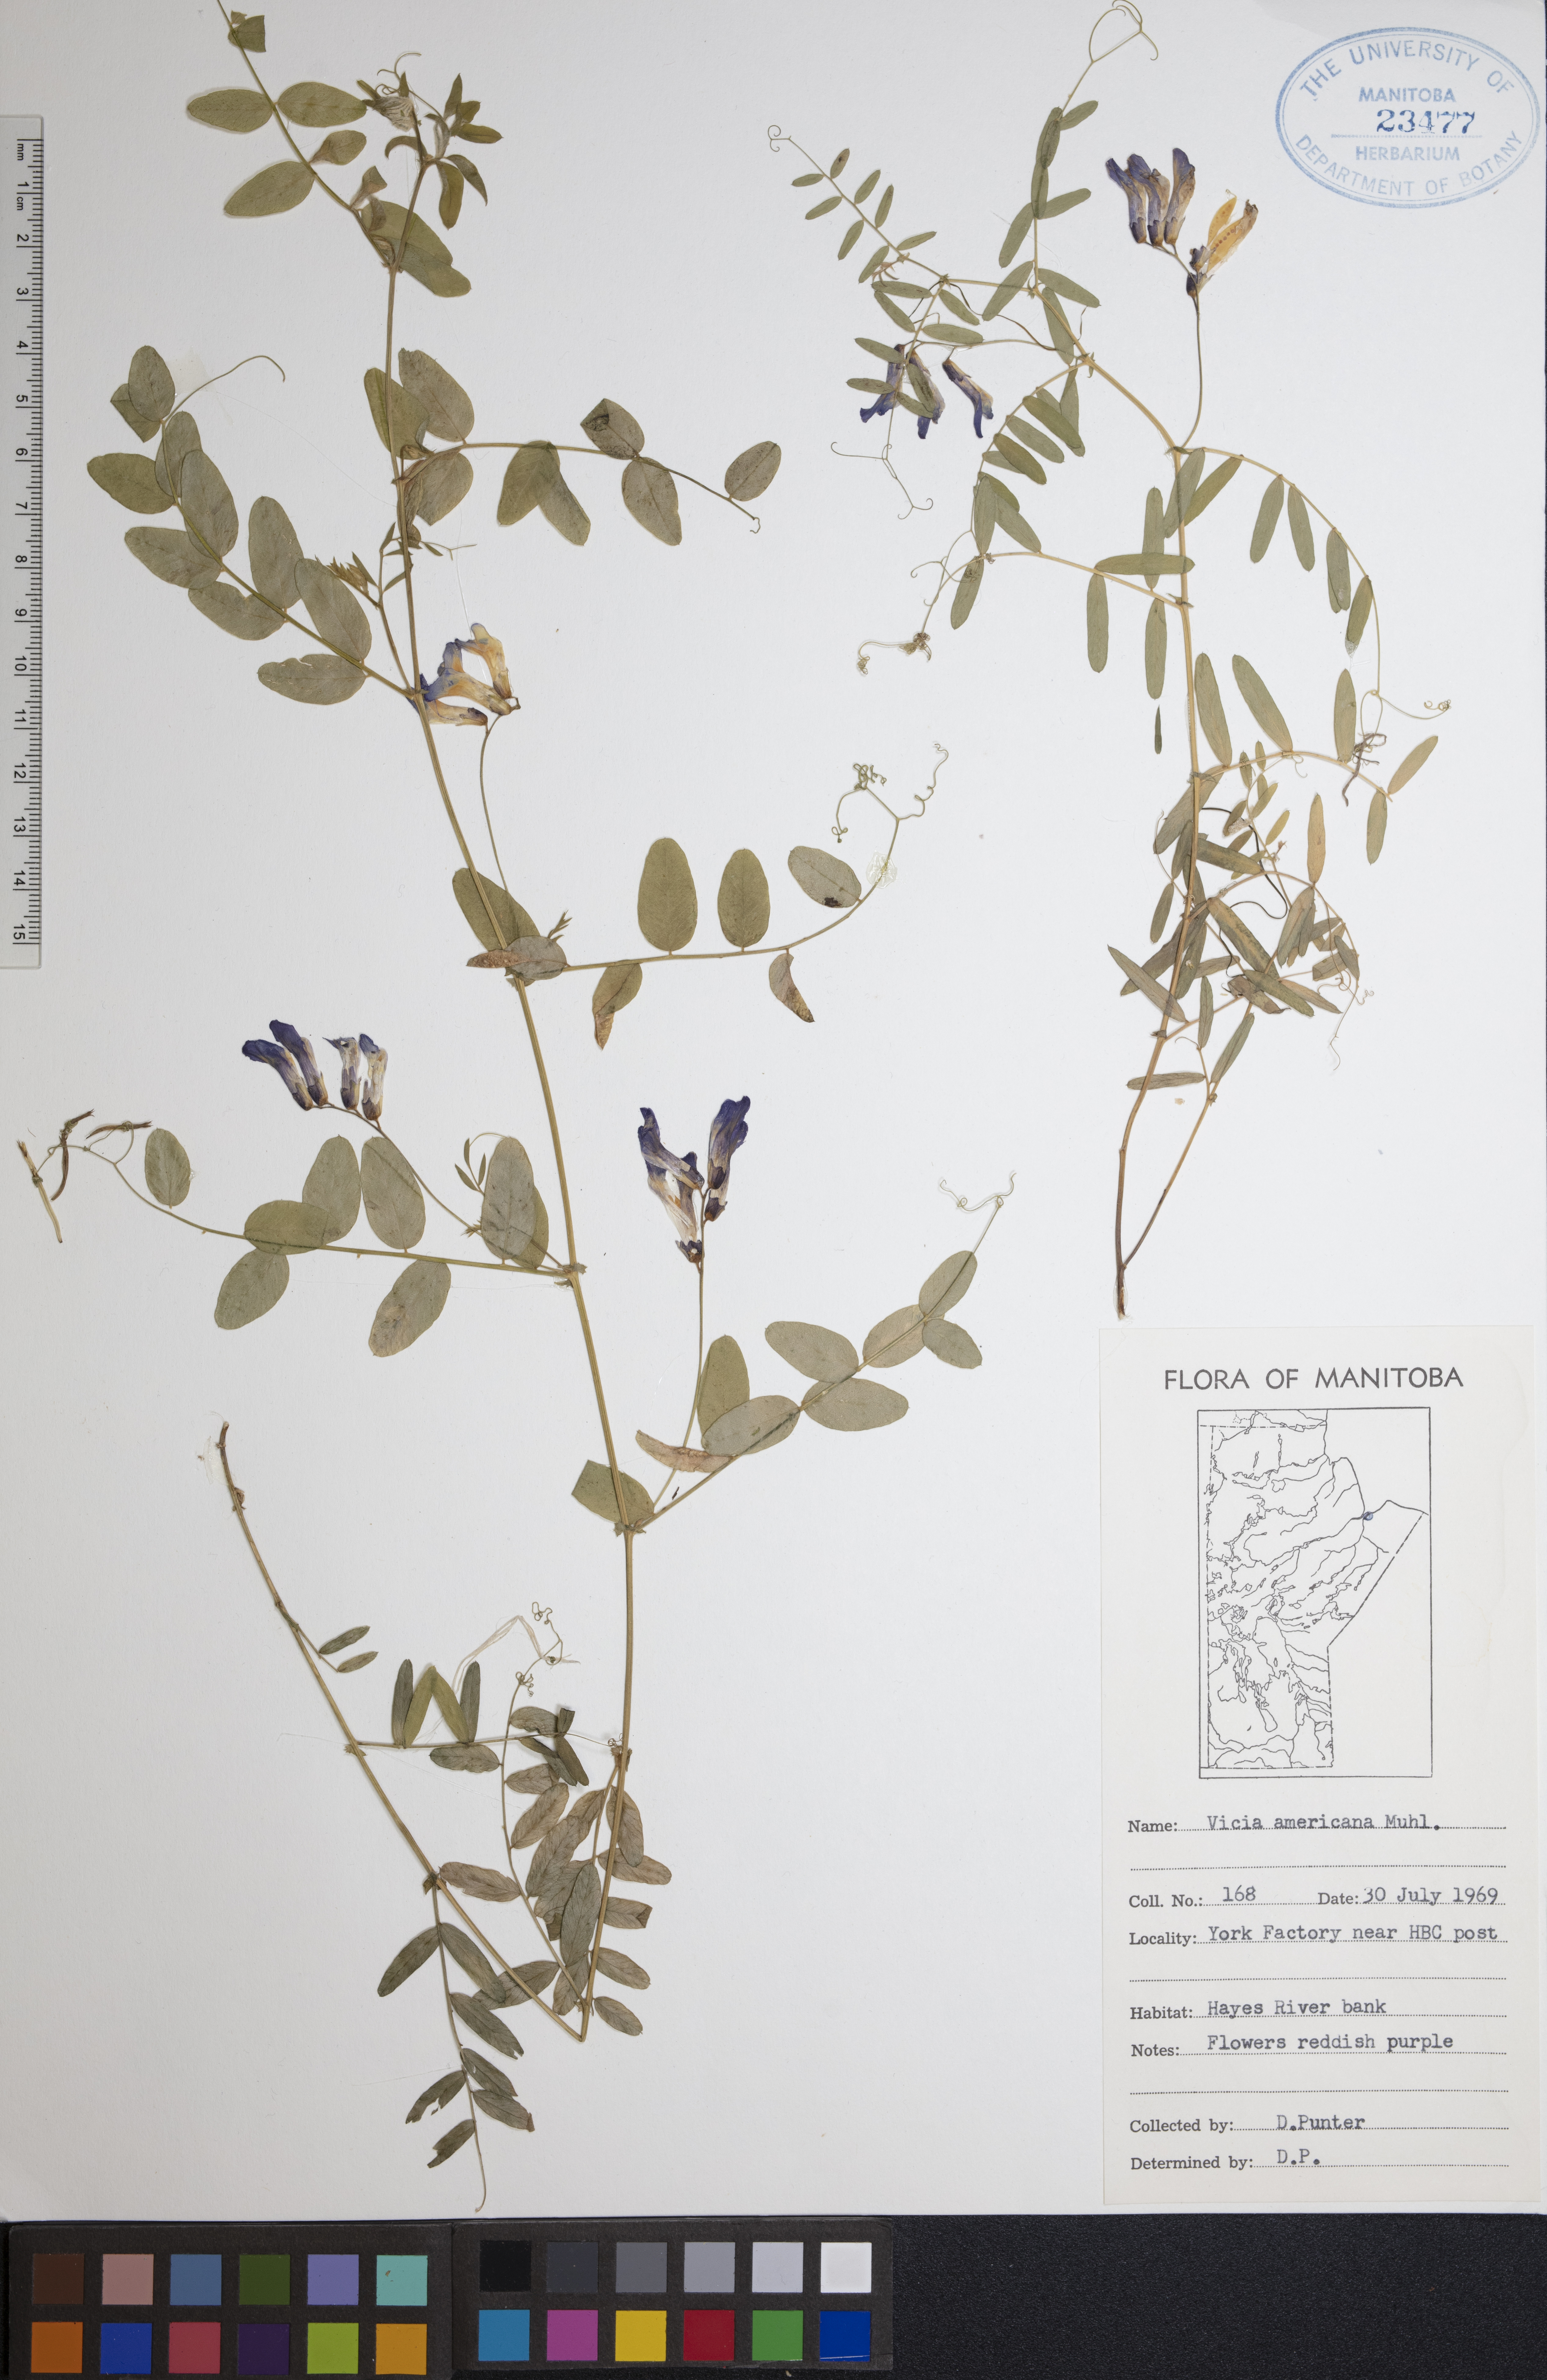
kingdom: Plantae
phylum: Tracheophyta
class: Magnoliopsida
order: Fabales
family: Fabaceae
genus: Vicia
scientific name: Vicia americana
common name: American vetch
